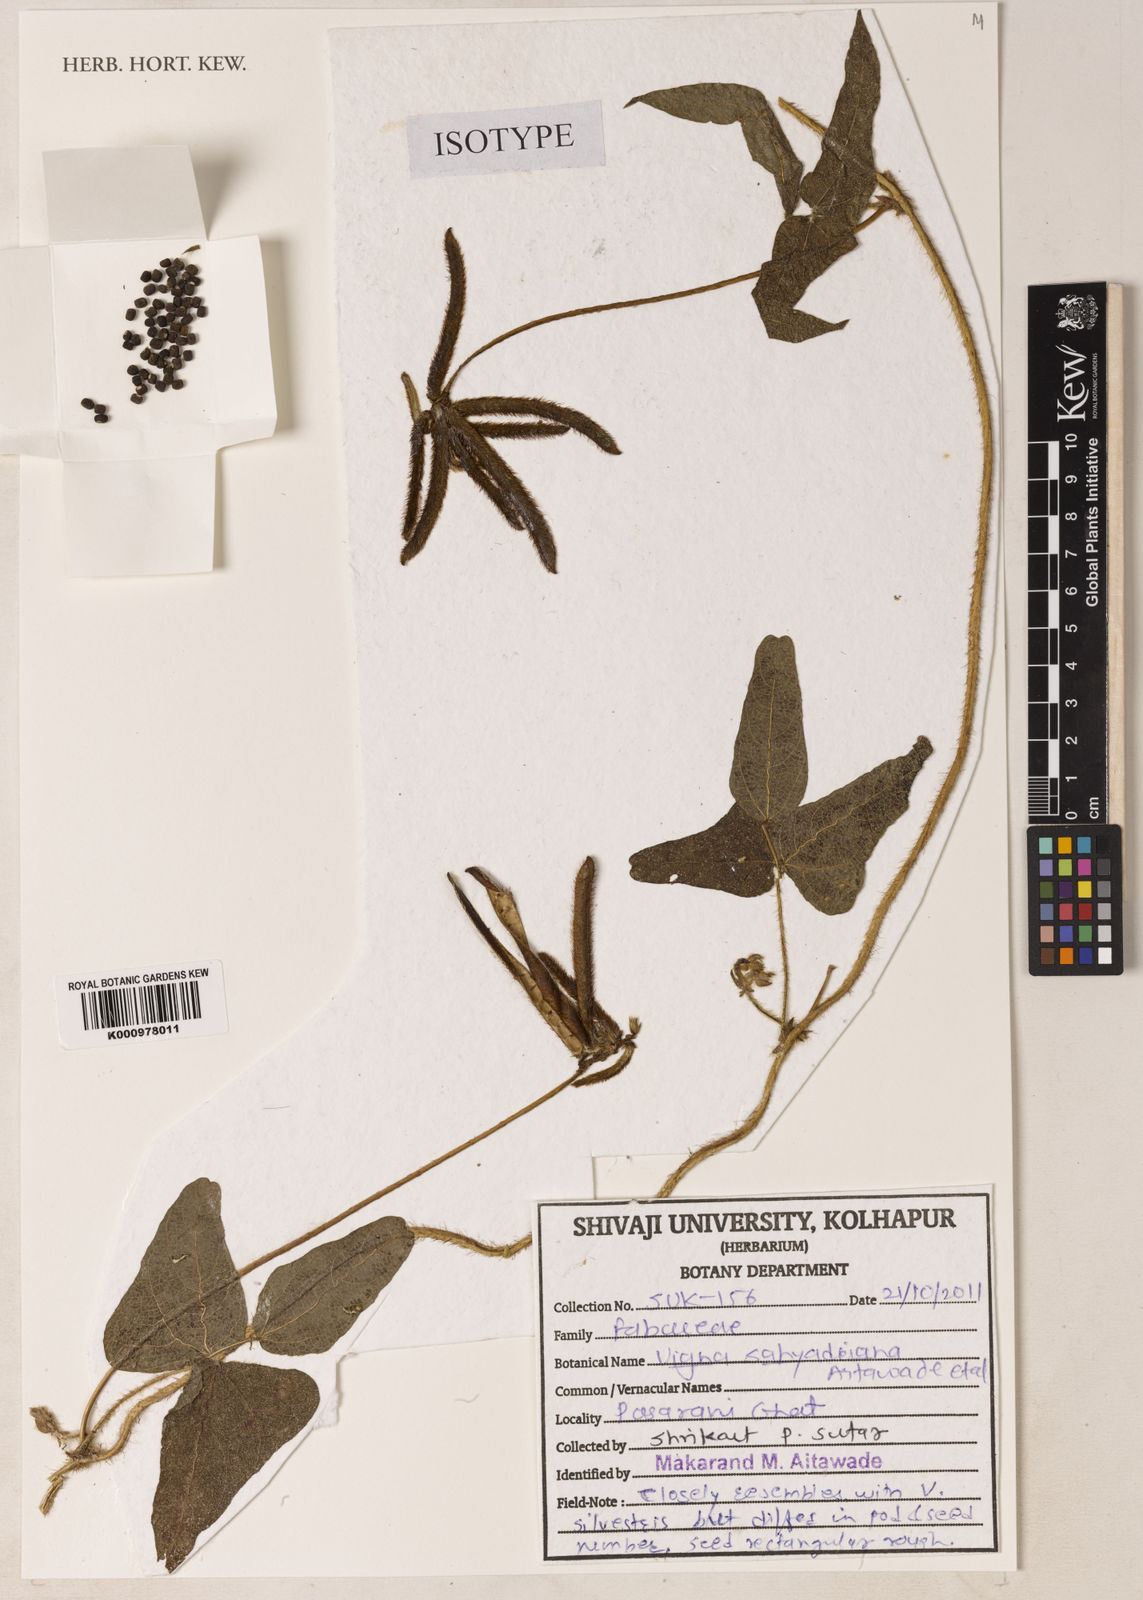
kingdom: Plantae
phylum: Tracheophyta
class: Magnoliopsida
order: Fabales
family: Fabaceae
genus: Vigna
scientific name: Vigna
